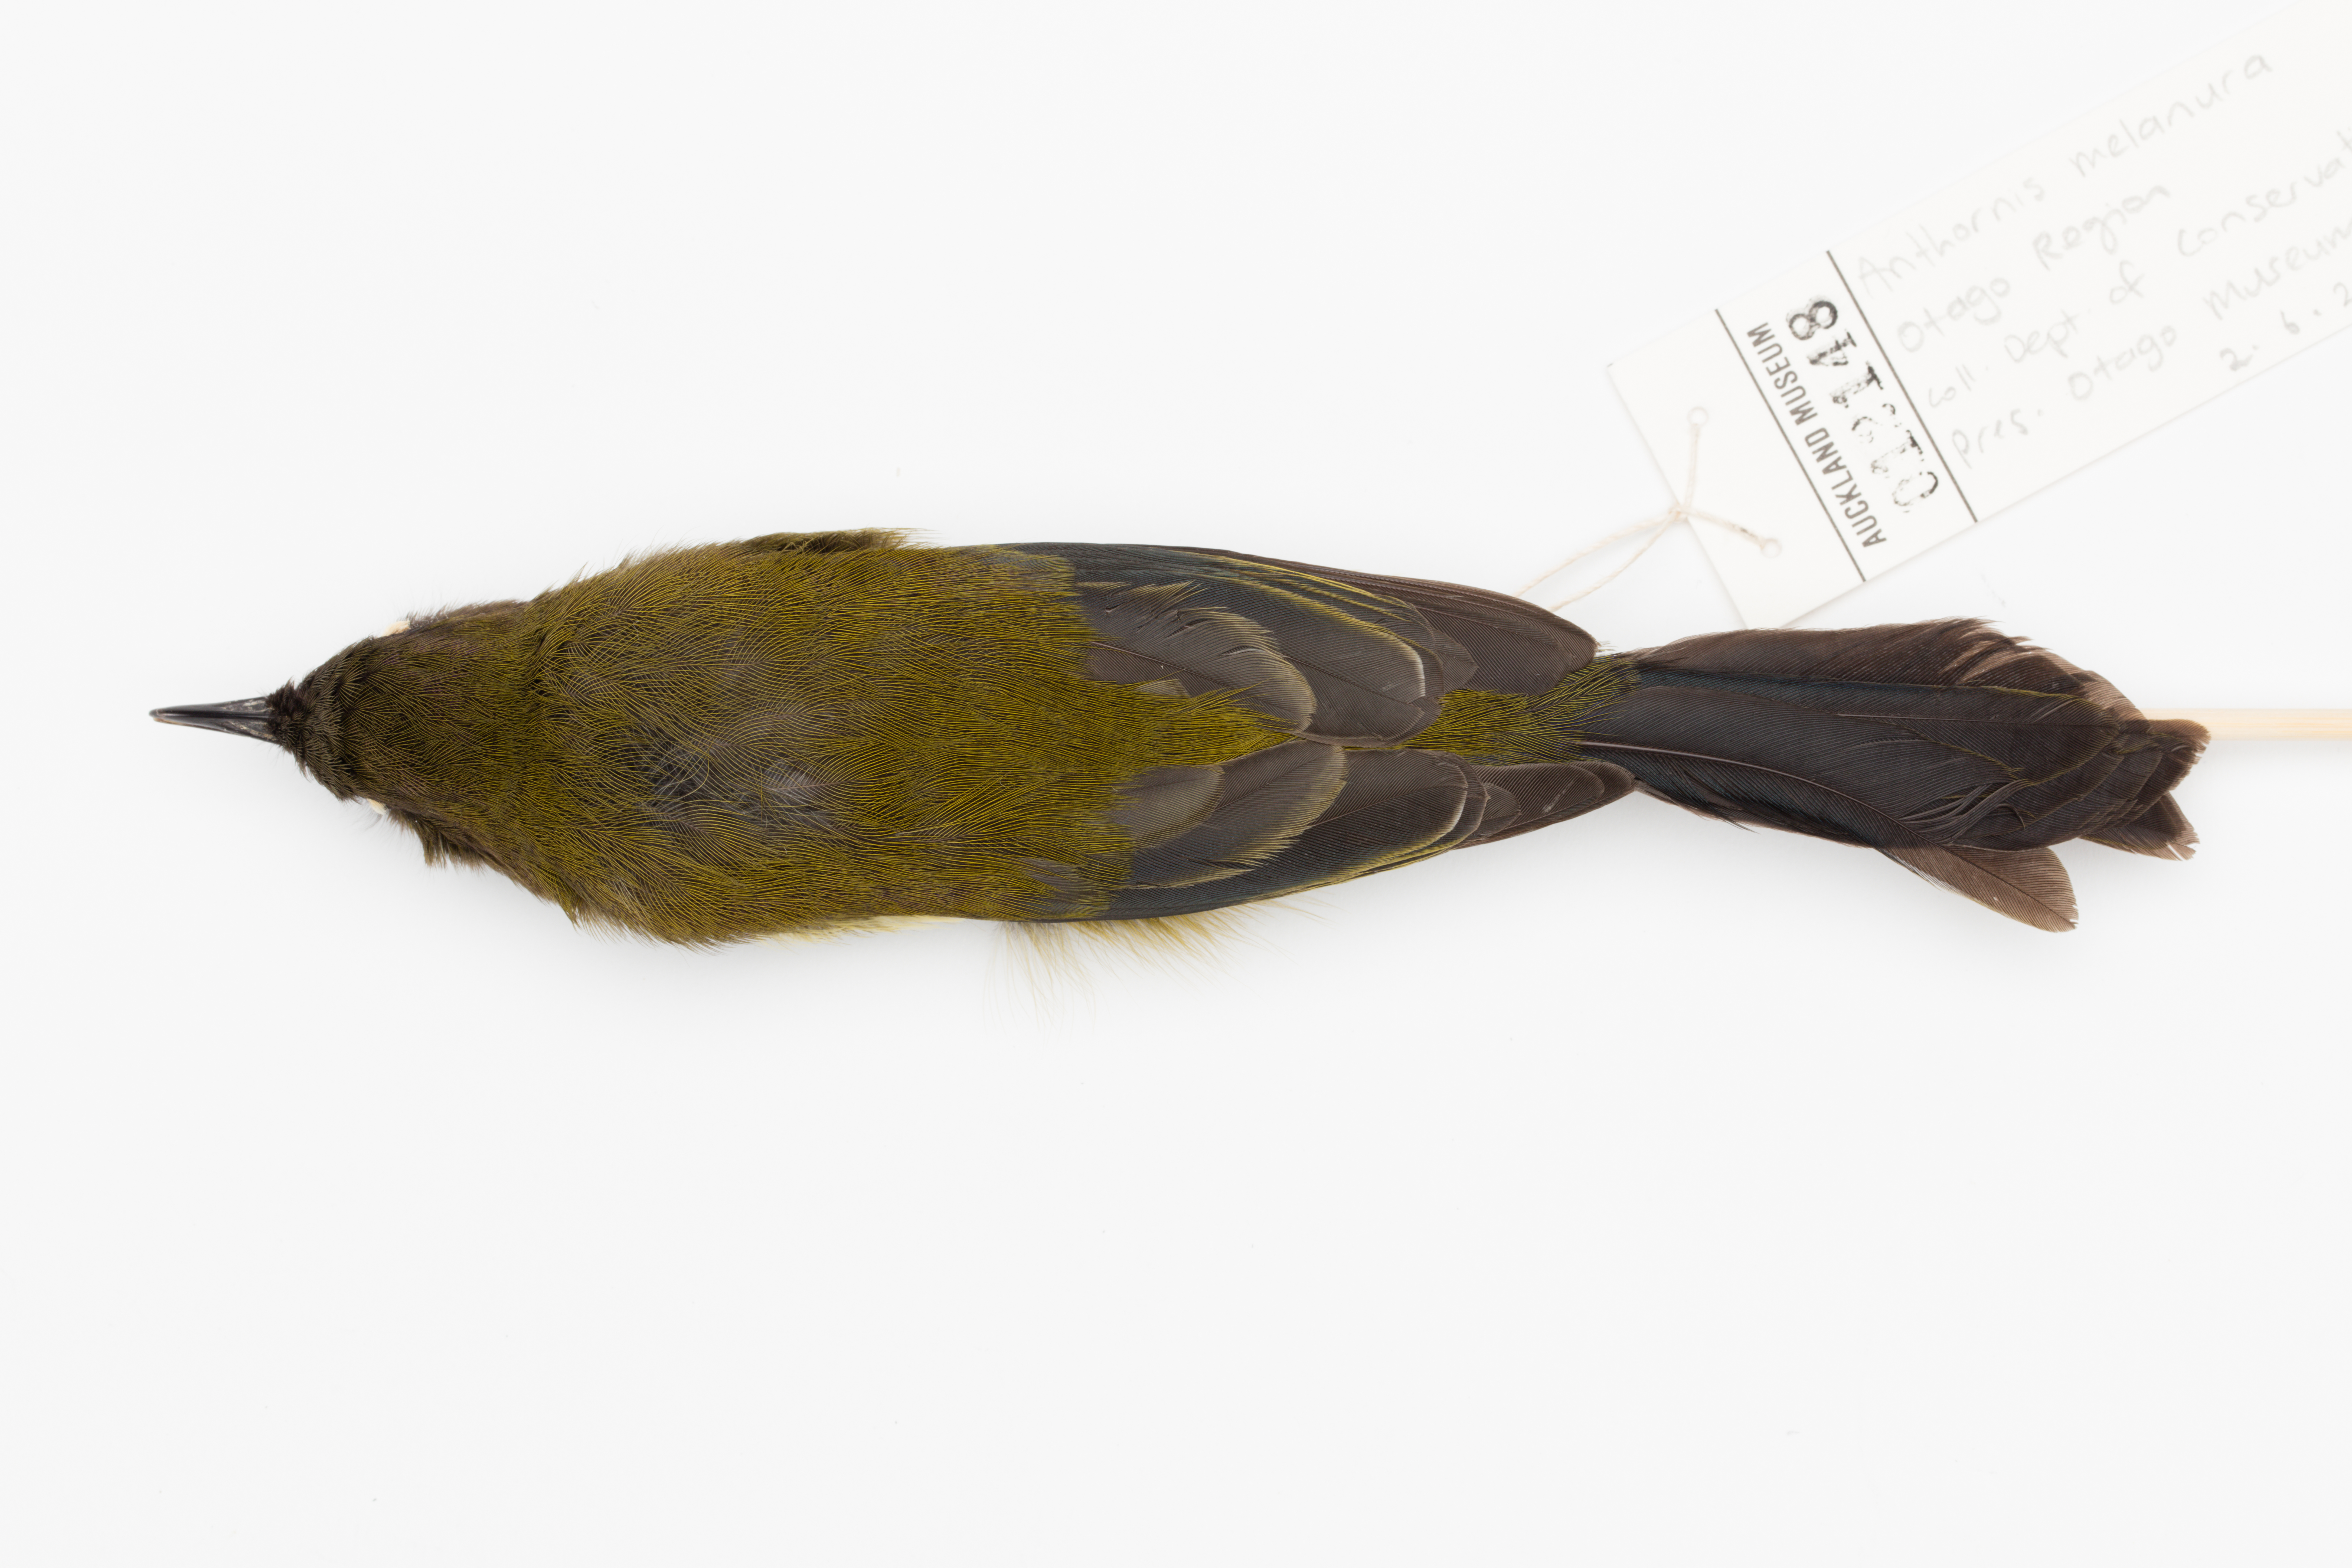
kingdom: Animalia
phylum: Chordata
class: Aves
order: Passeriformes
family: Meliphagidae
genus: Anthornis
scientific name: Anthornis melanura
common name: New zealand bellbird
